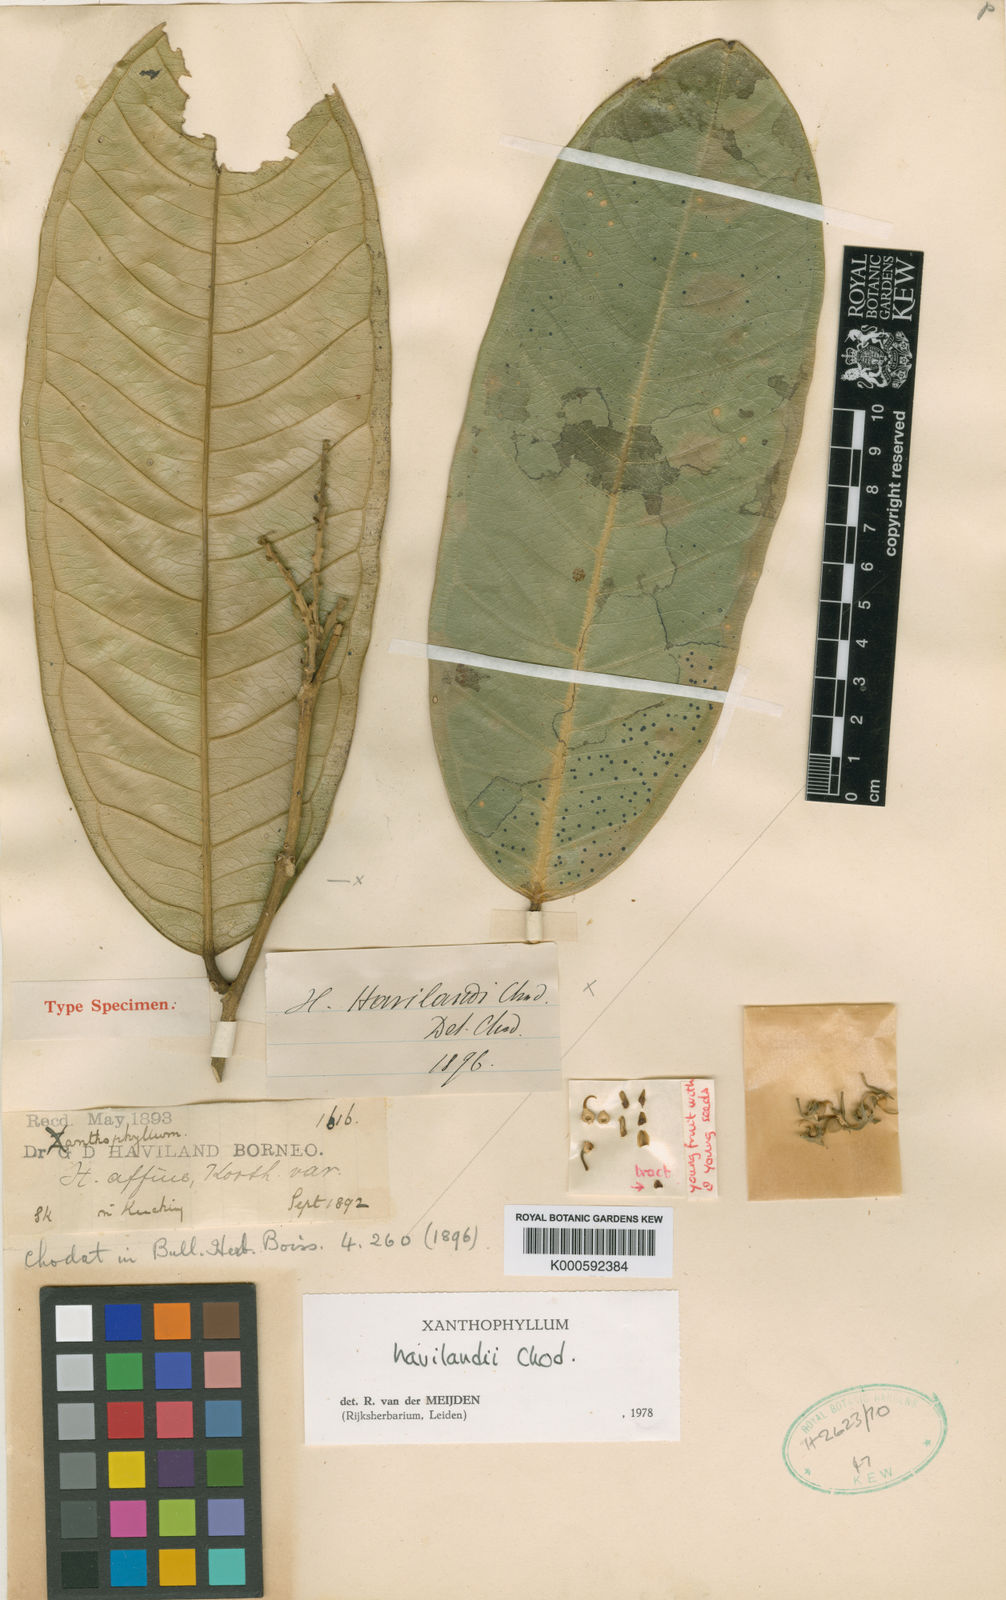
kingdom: Plantae
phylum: Tracheophyta
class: Magnoliopsida
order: Fabales
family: Polygalaceae
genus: Xanthophyllum
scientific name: Xanthophyllum flavescens
